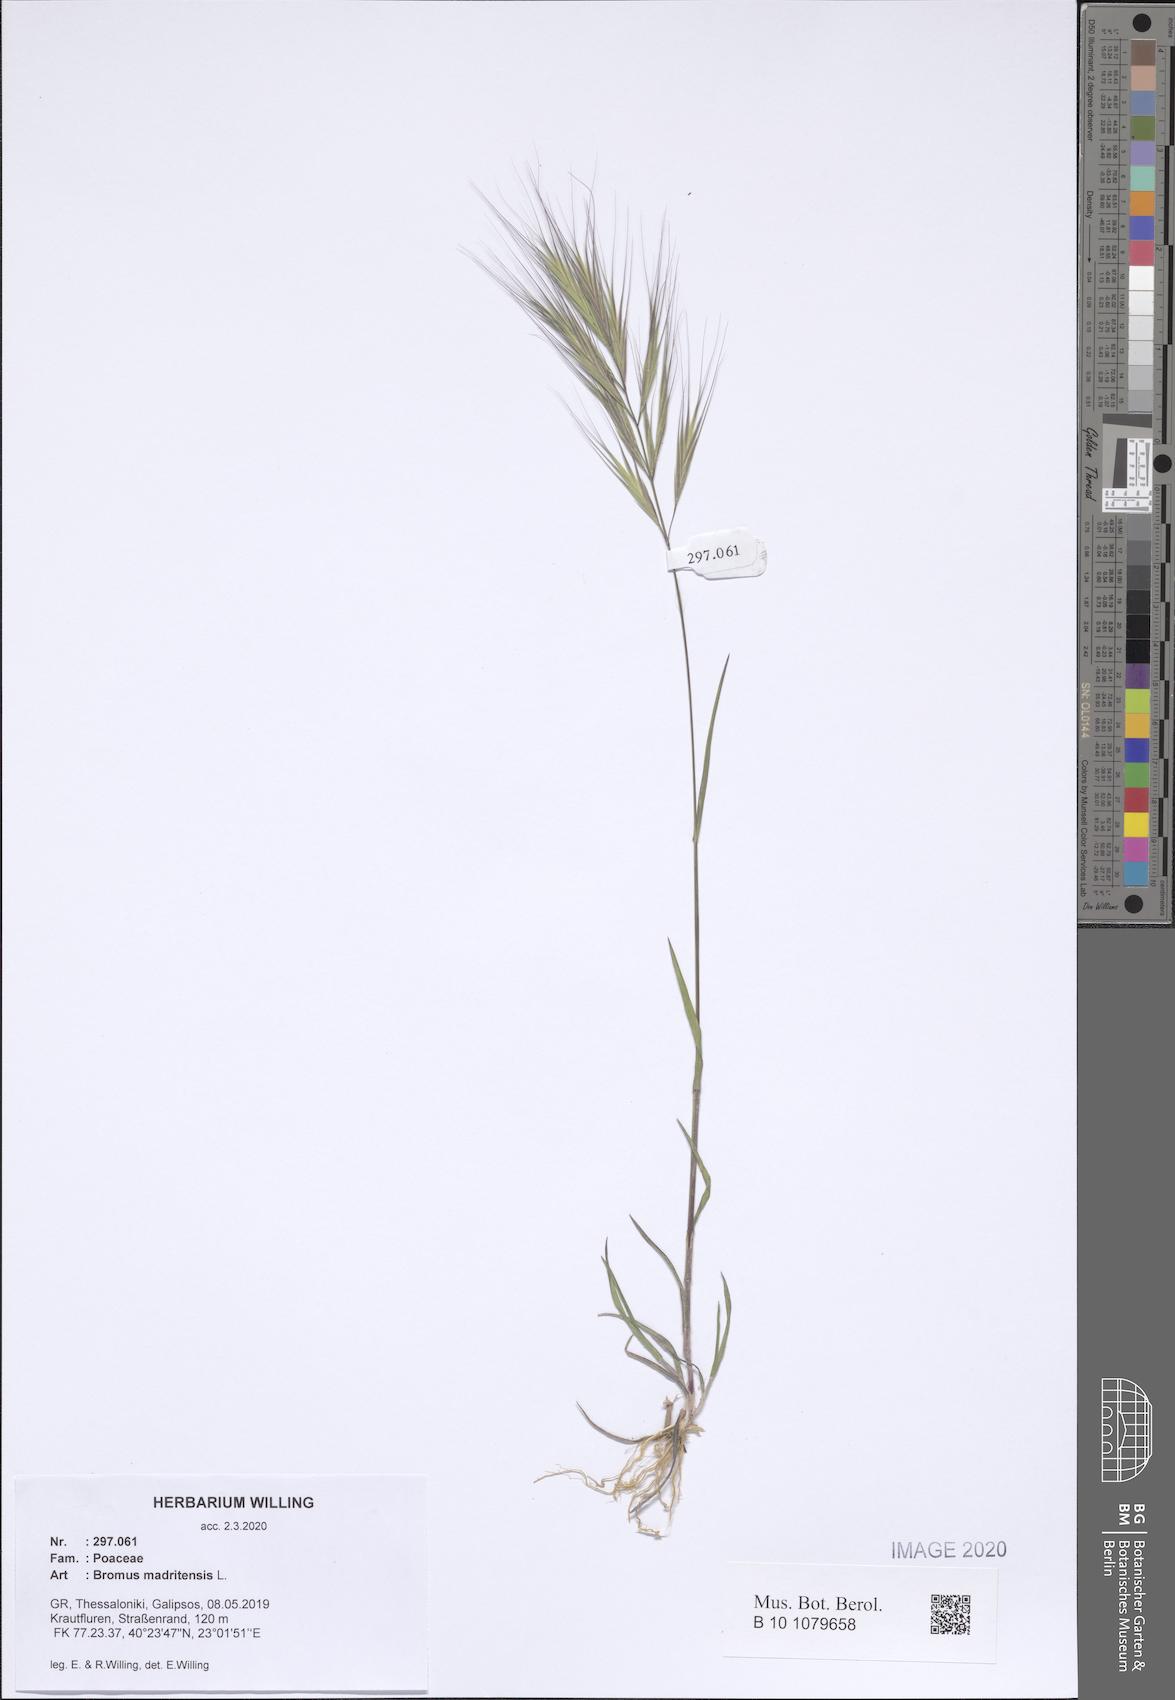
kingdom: Plantae
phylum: Tracheophyta
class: Liliopsida
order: Poales
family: Poaceae
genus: Bromus
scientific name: Bromus madritensis
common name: Compact brome
